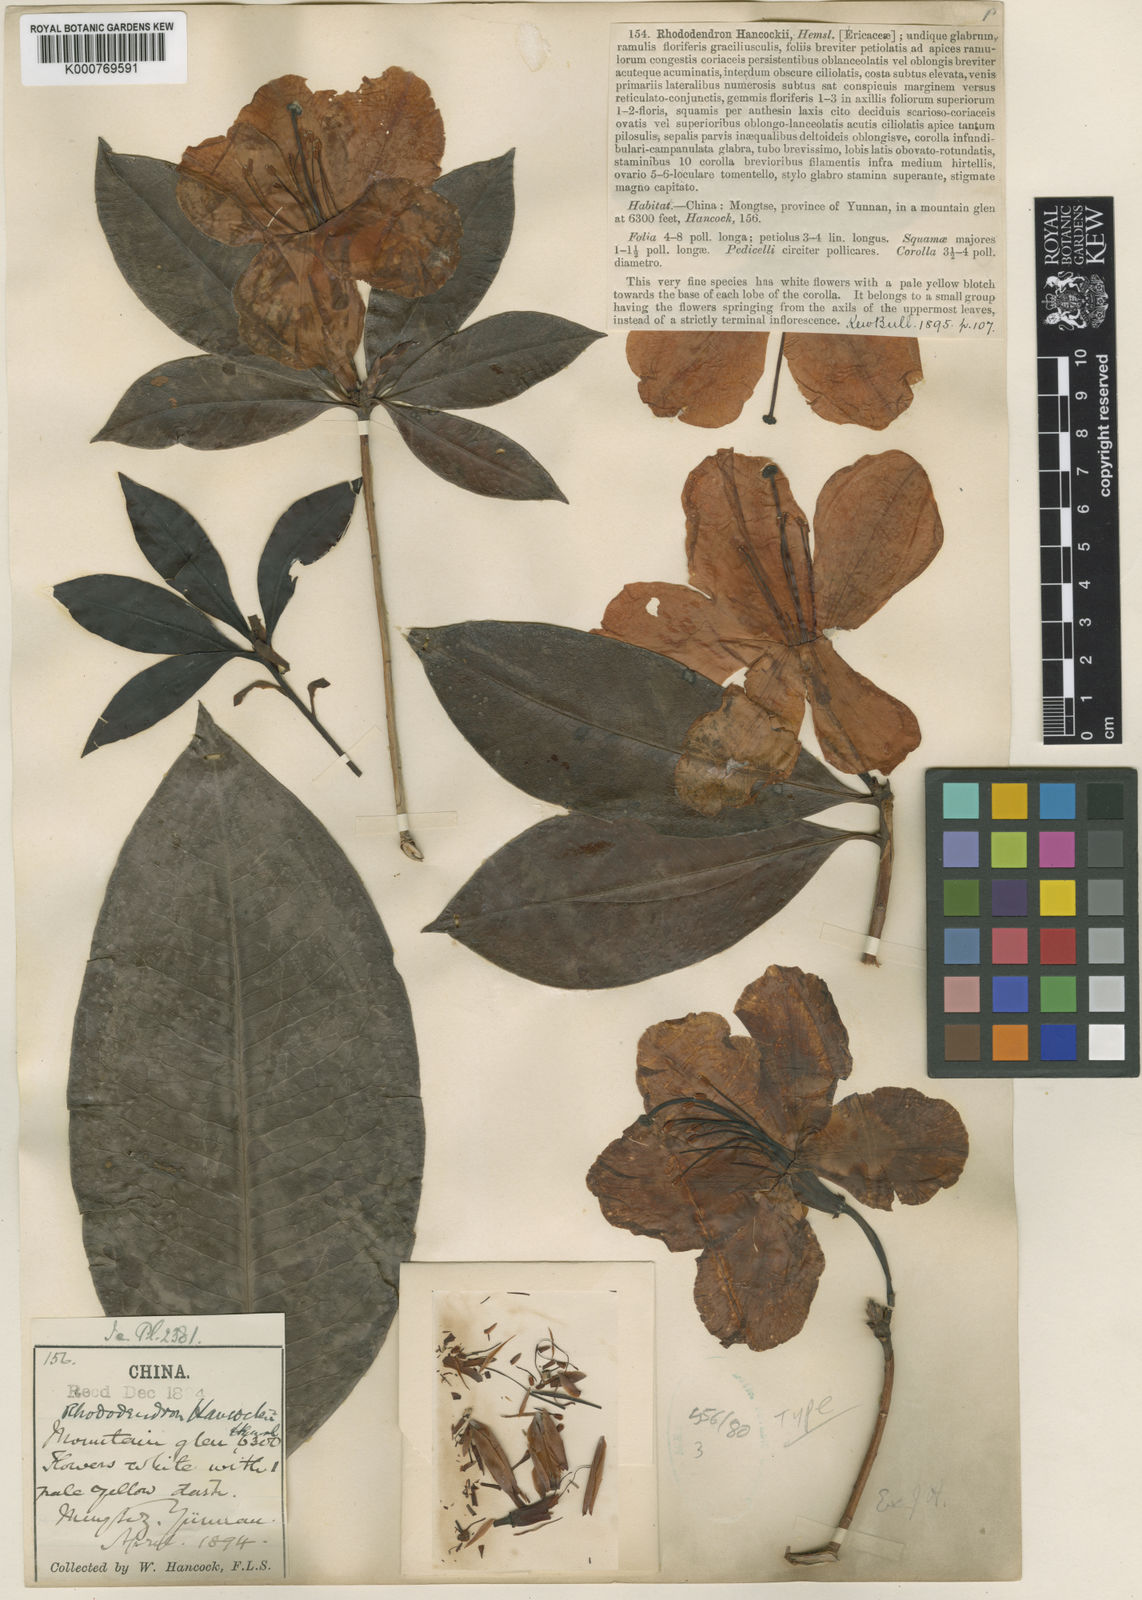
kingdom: Plantae
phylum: Tracheophyta
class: Magnoliopsida
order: Ericales
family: Ericaceae
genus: Rhododendron
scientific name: Rhododendron hancockii
